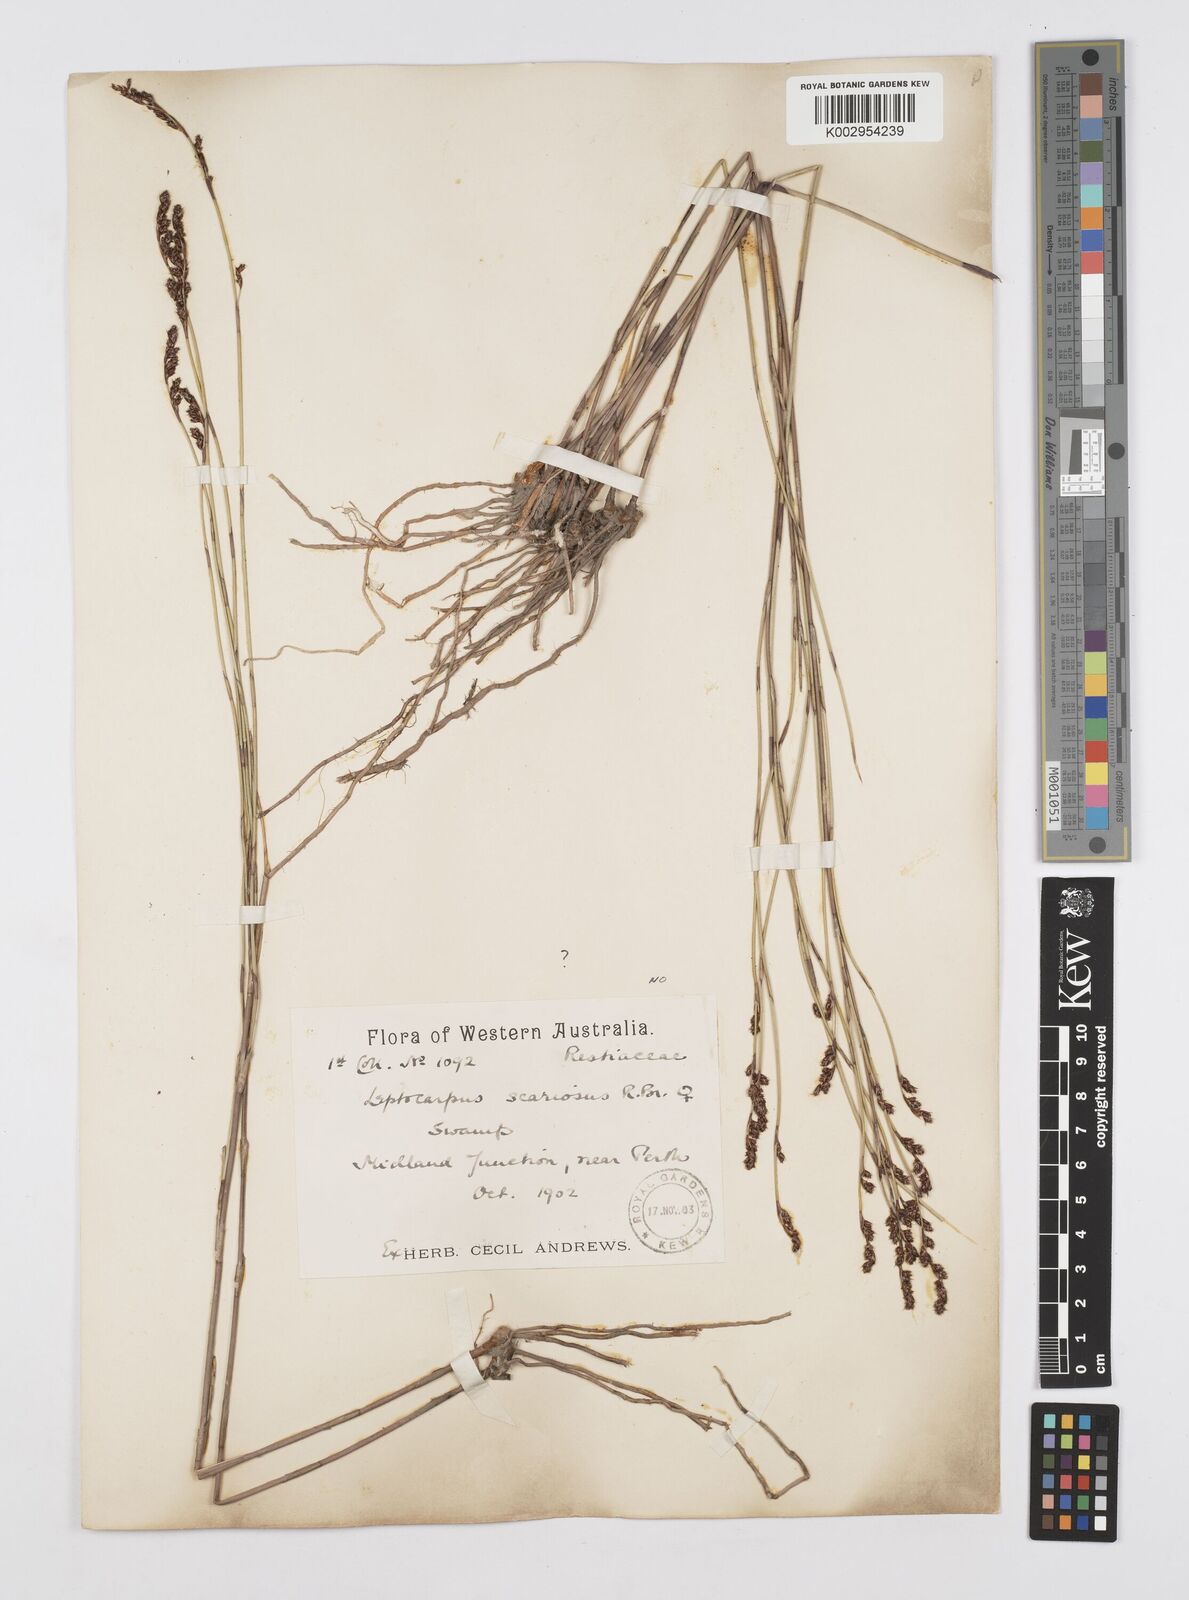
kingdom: Plantae
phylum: Tracheophyta
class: Liliopsida
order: Poales
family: Restionaceae
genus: Leptocarpus
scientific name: Leptocarpus coangustatus
